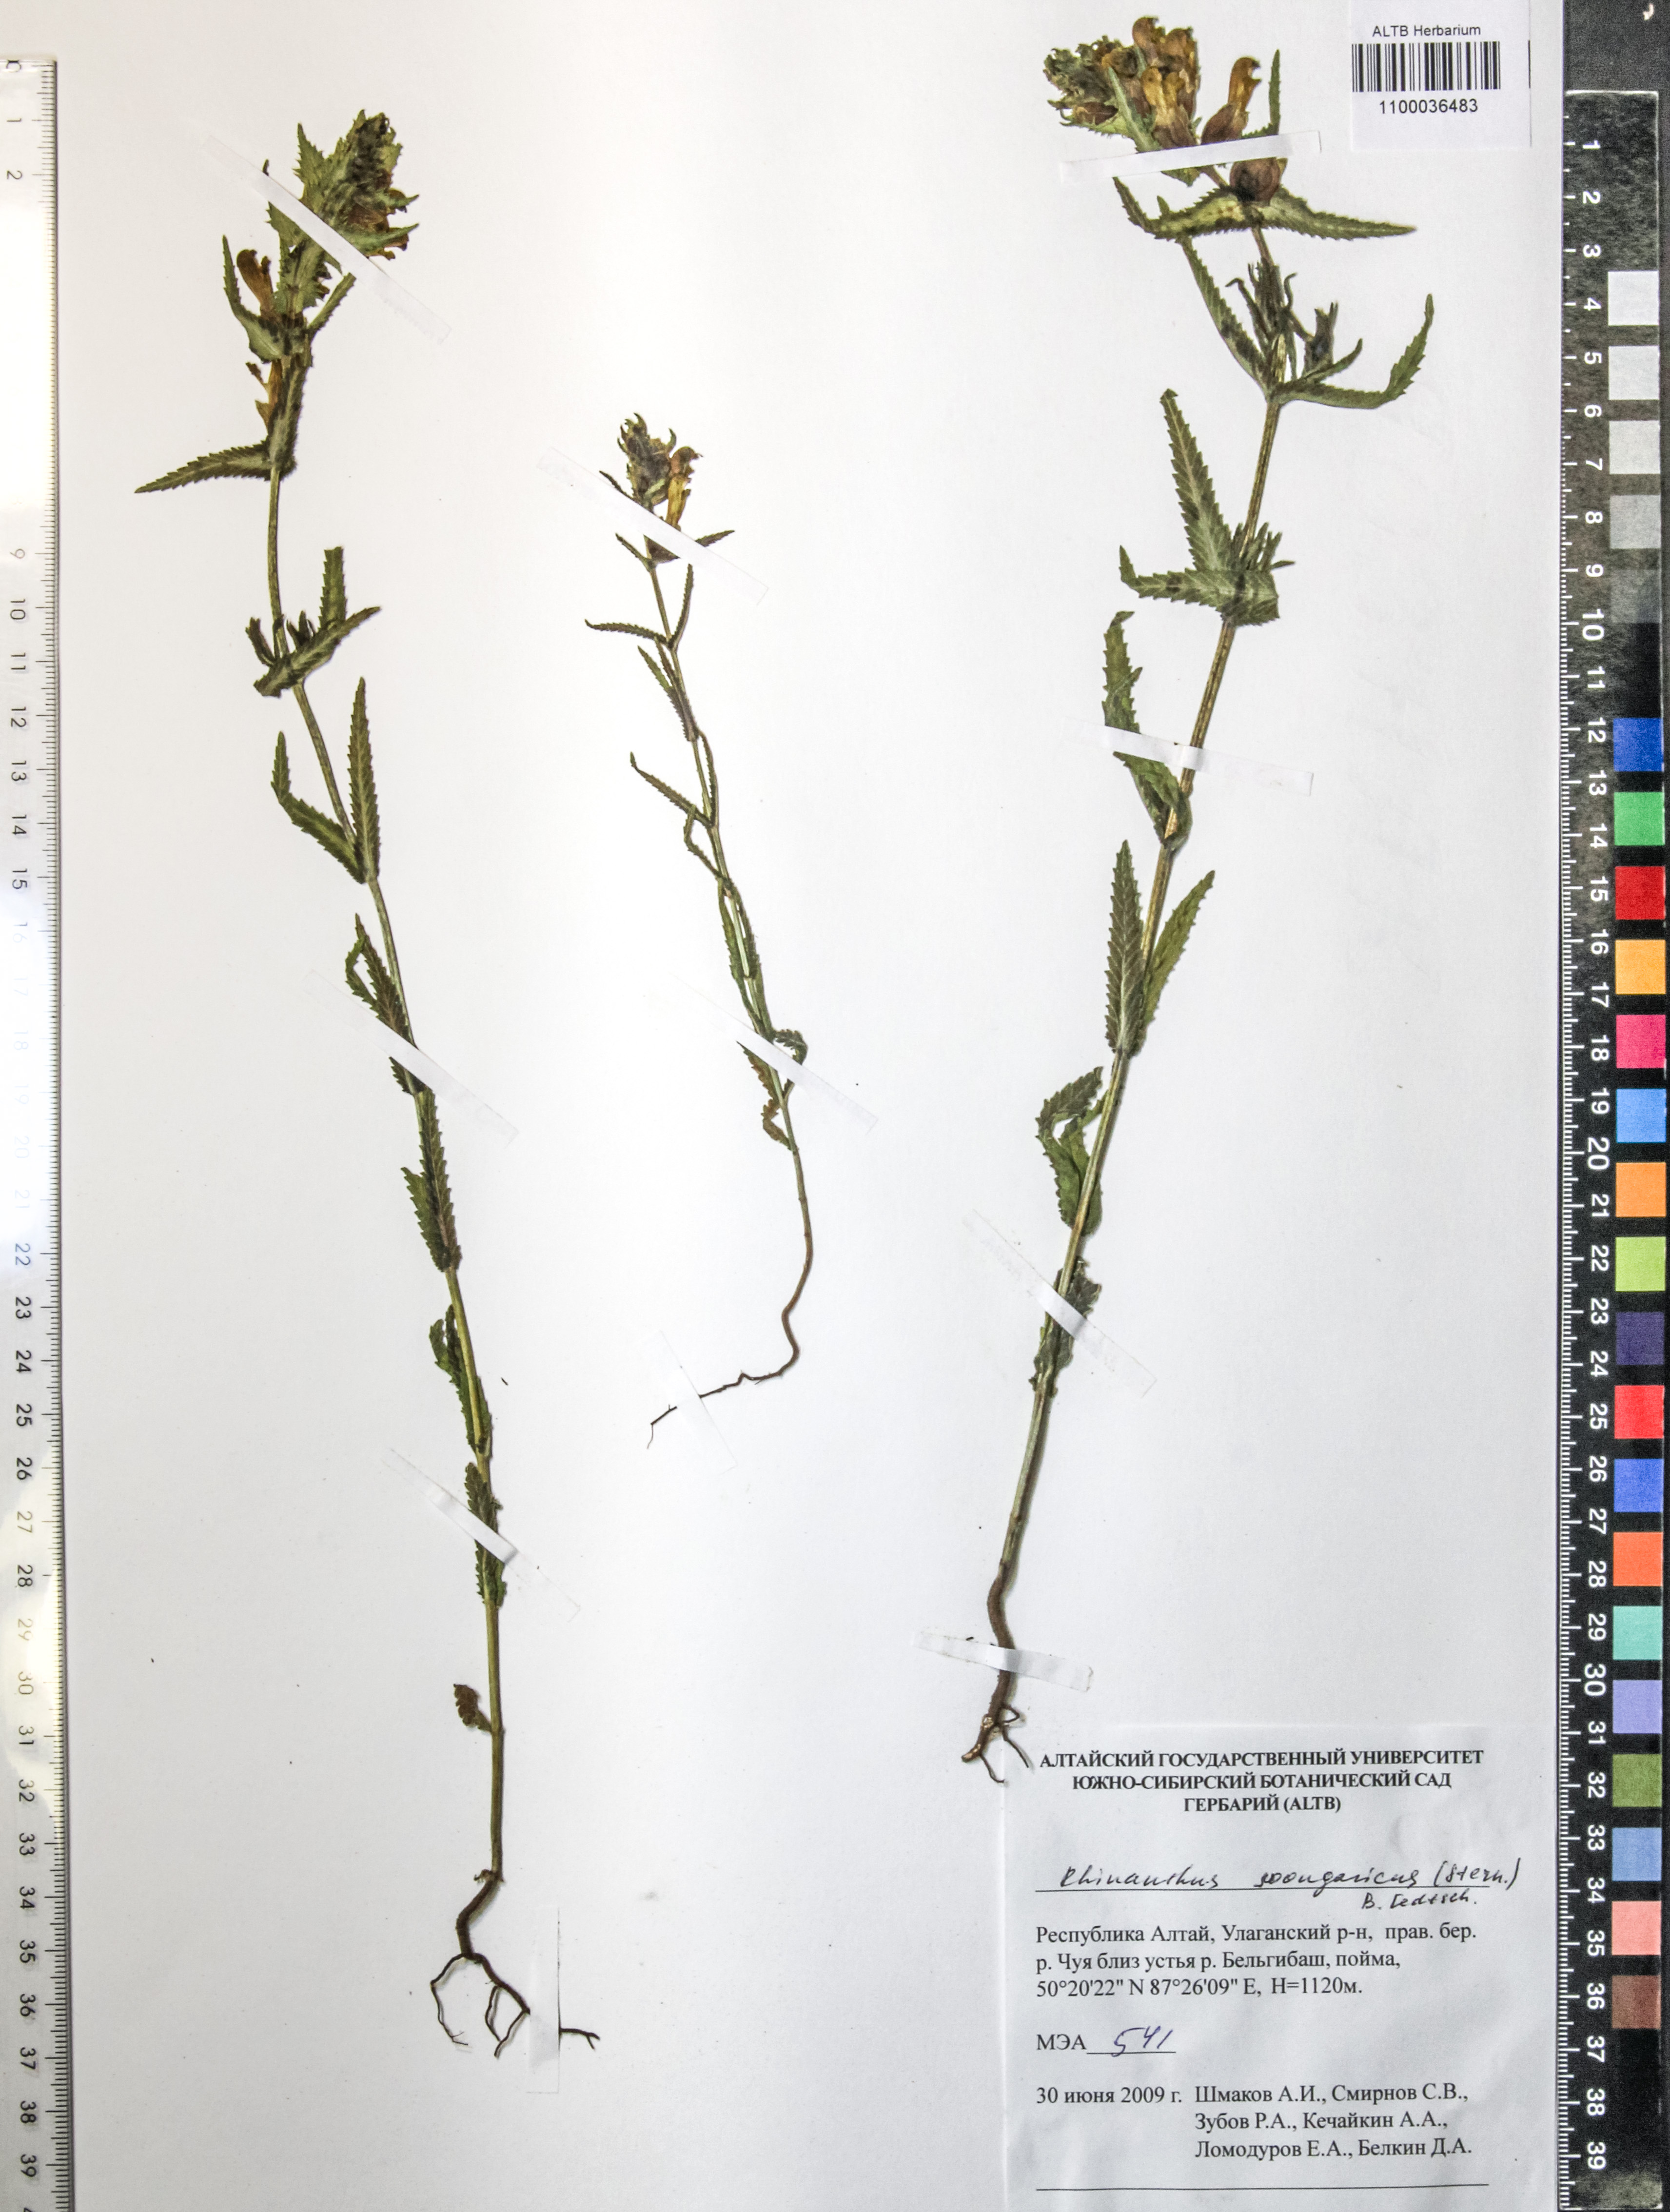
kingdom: Plantae
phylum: Tracheophyta
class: Magnoliopsida
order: Lamiales
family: Orobanchaceae
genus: Rhinanthus
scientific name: Rhinanthus
